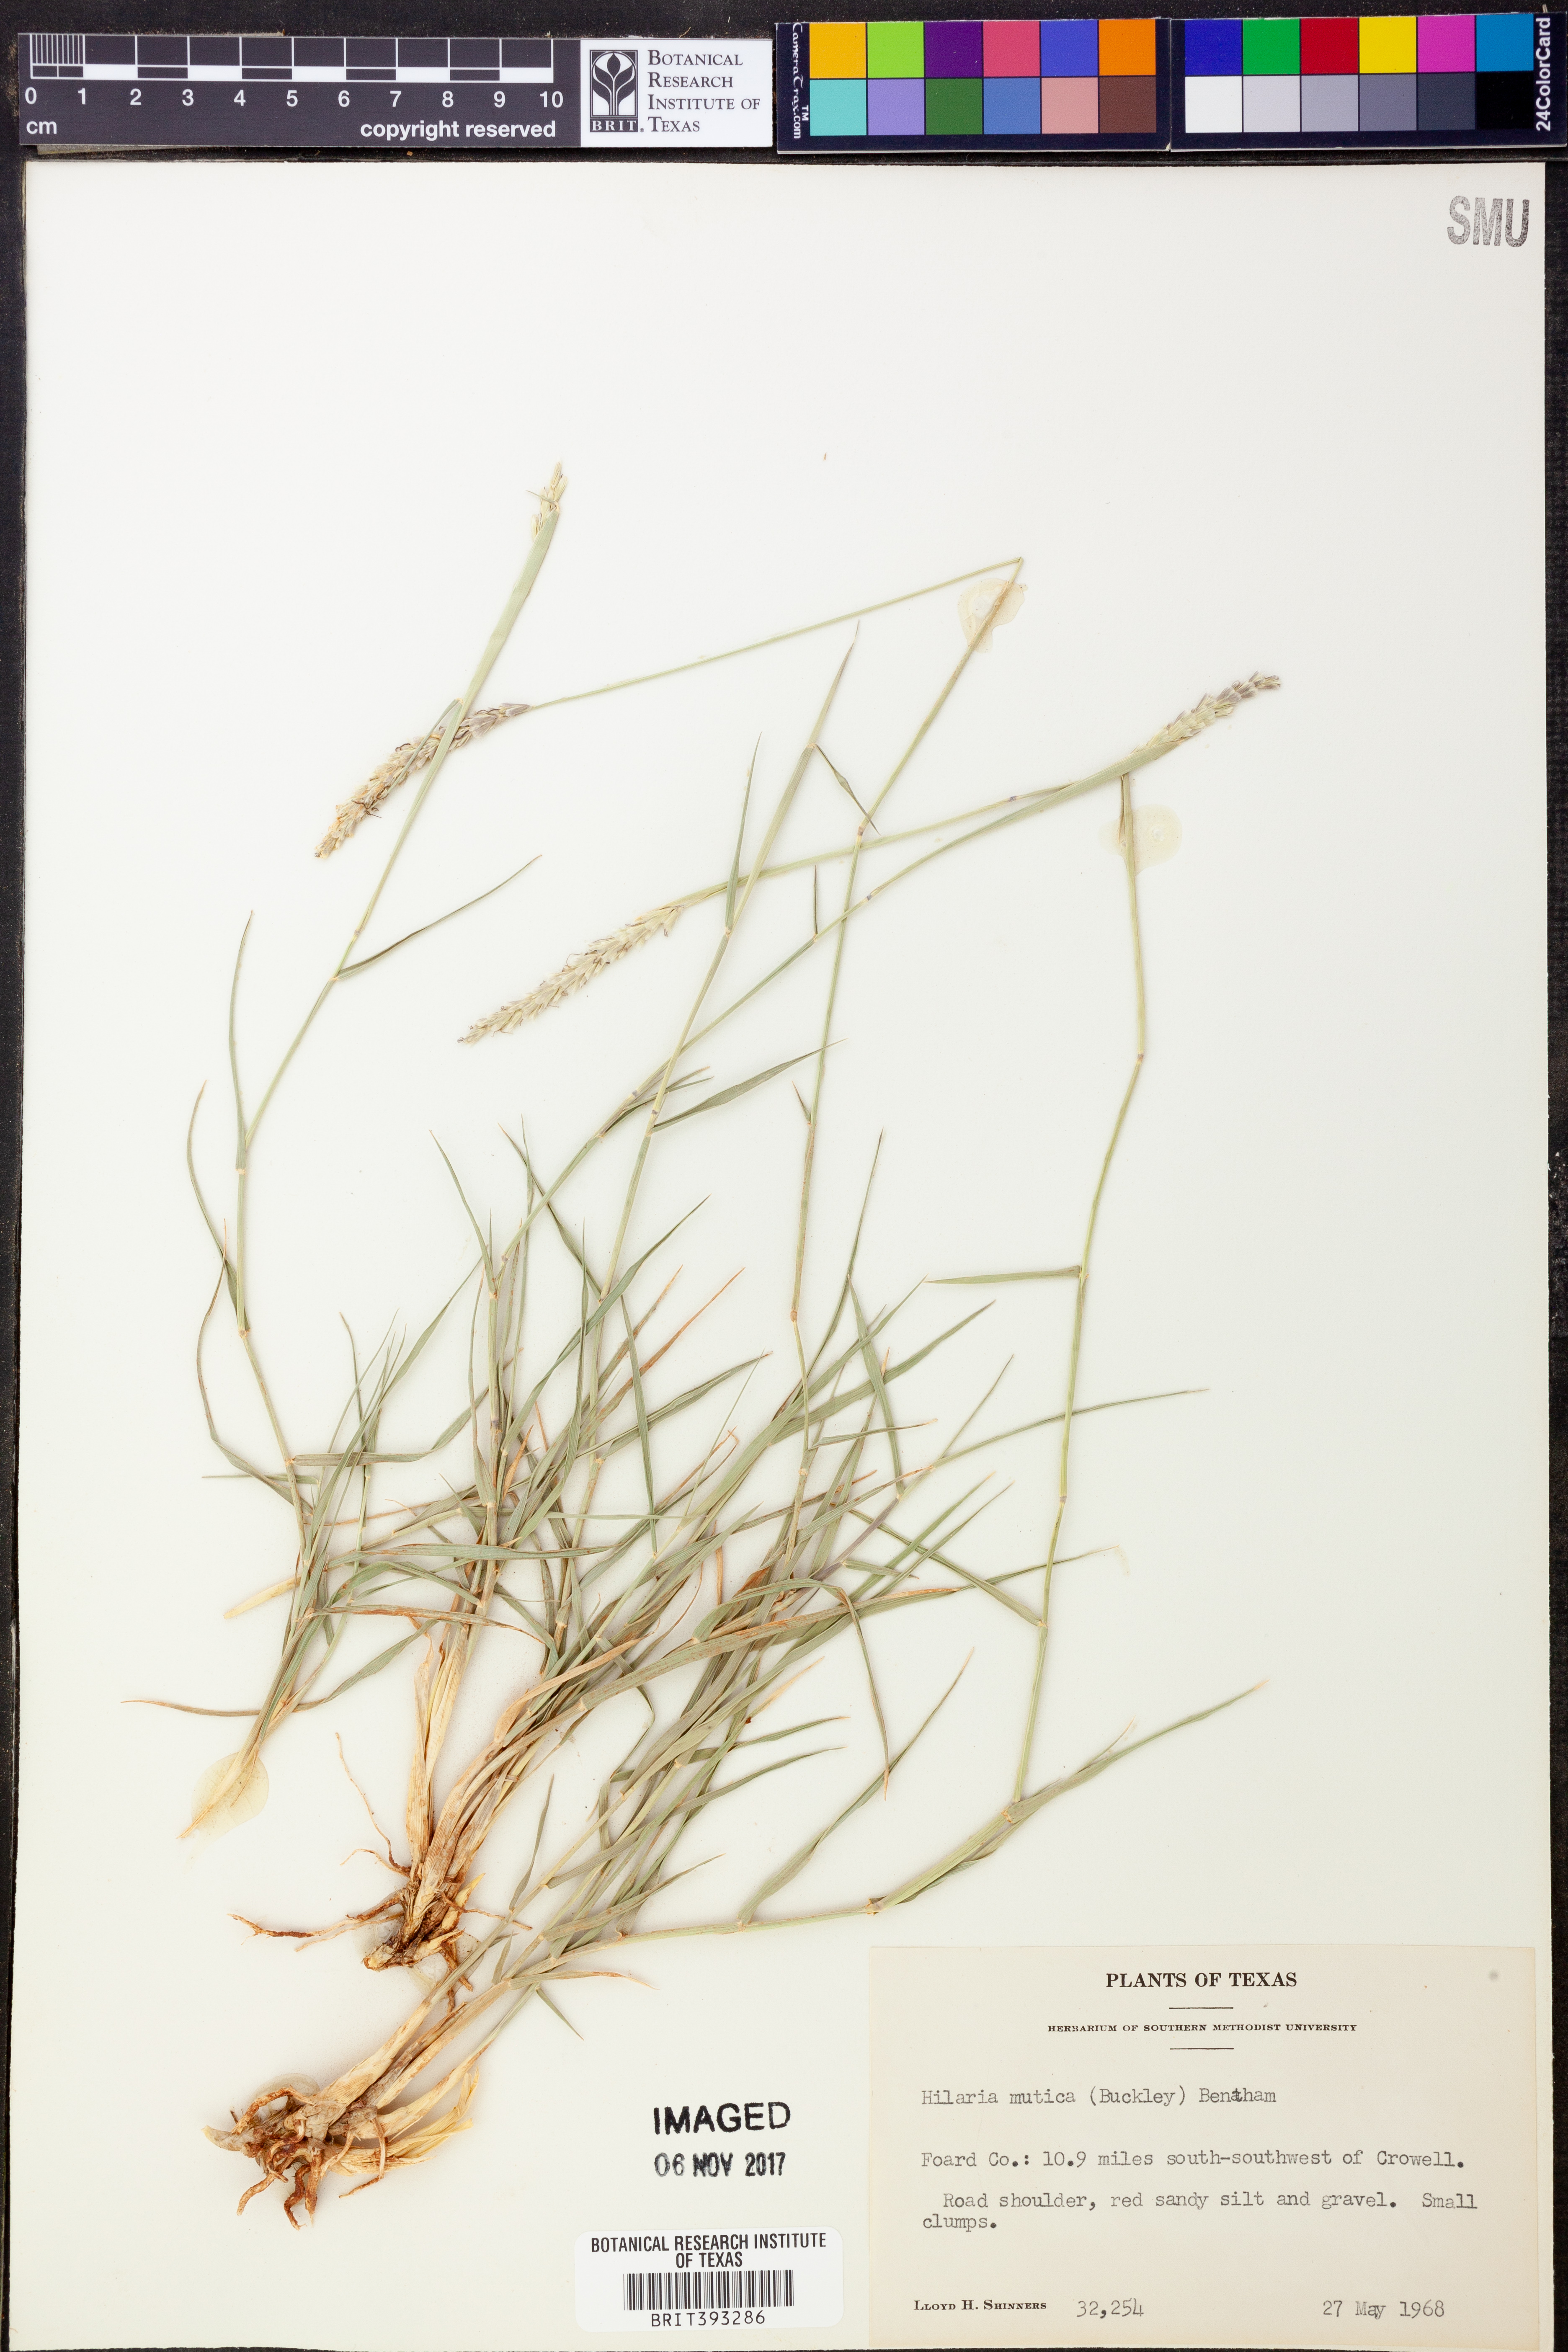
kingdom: Plantae
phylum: Tracheophyta
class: Liliopsida
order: Poales
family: Poaceae
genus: Hilaria
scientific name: Hilaria mutica
